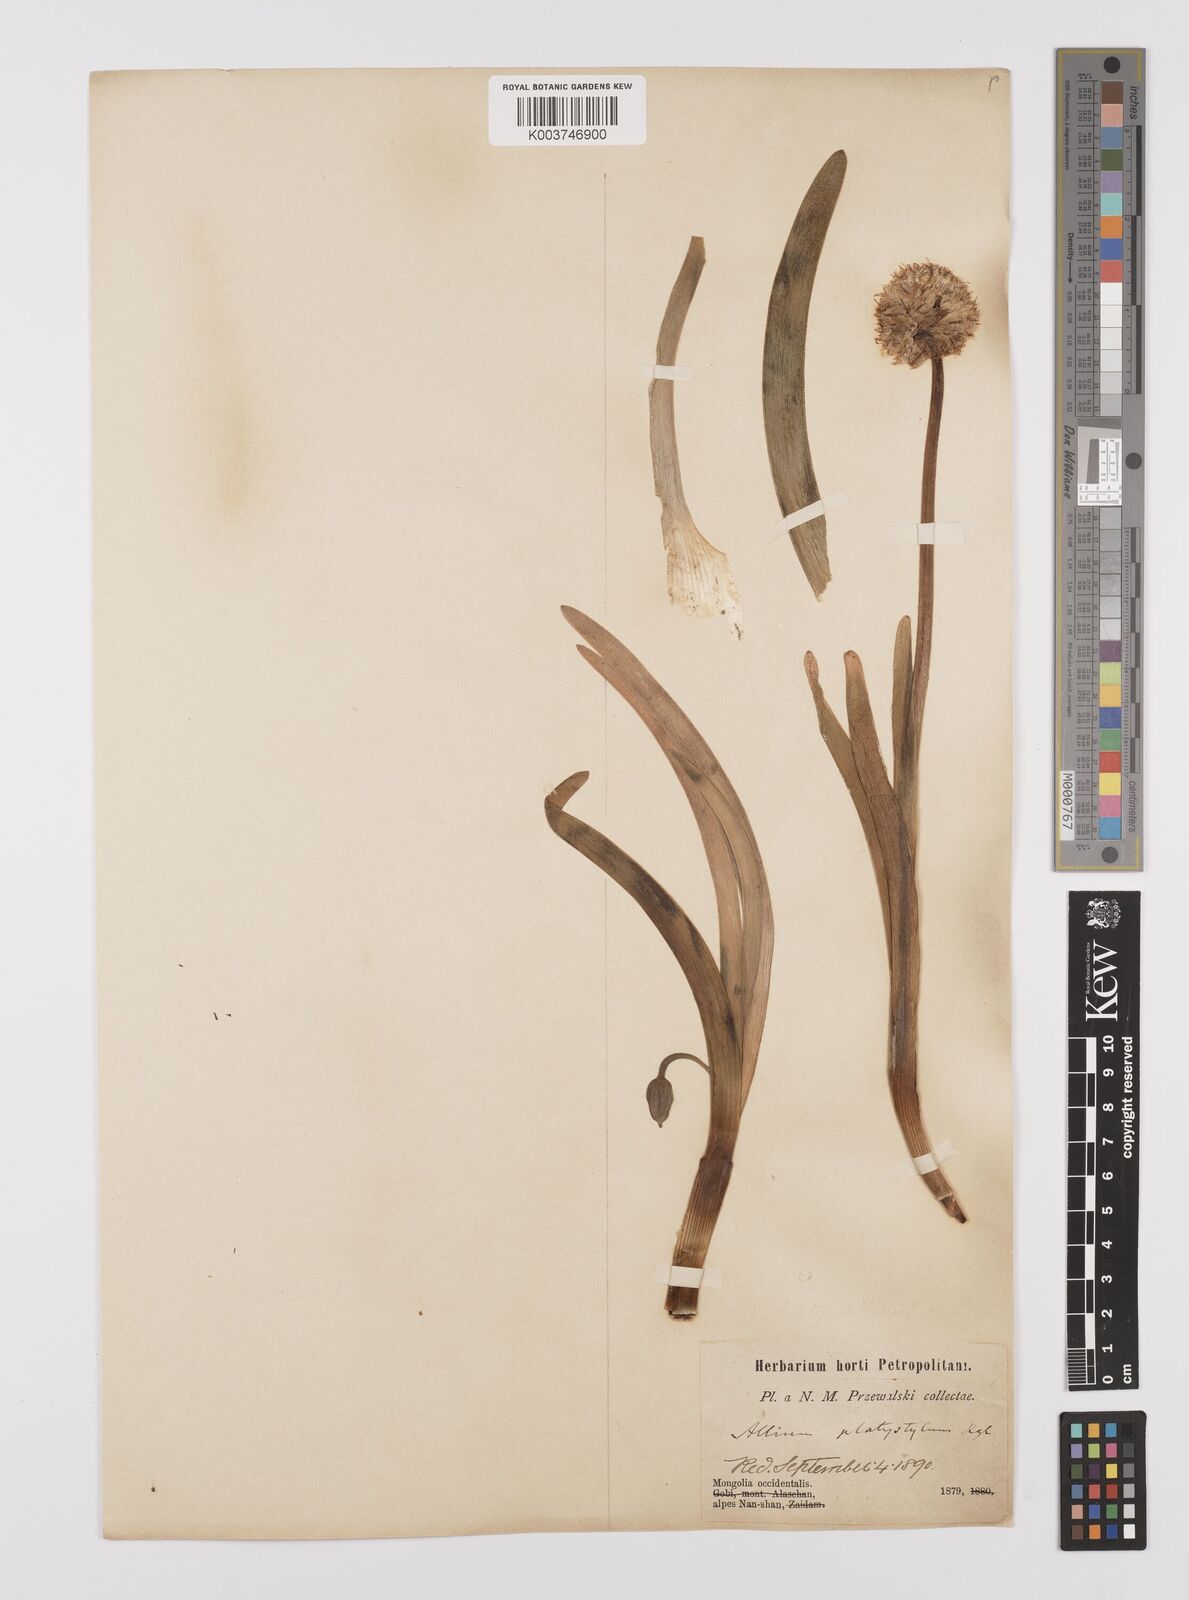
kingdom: Plantae
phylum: Tracheophyta
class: Liliopsida
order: Asparagales
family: Amaryllidaceae
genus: Allium
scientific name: Allium carolinianum
